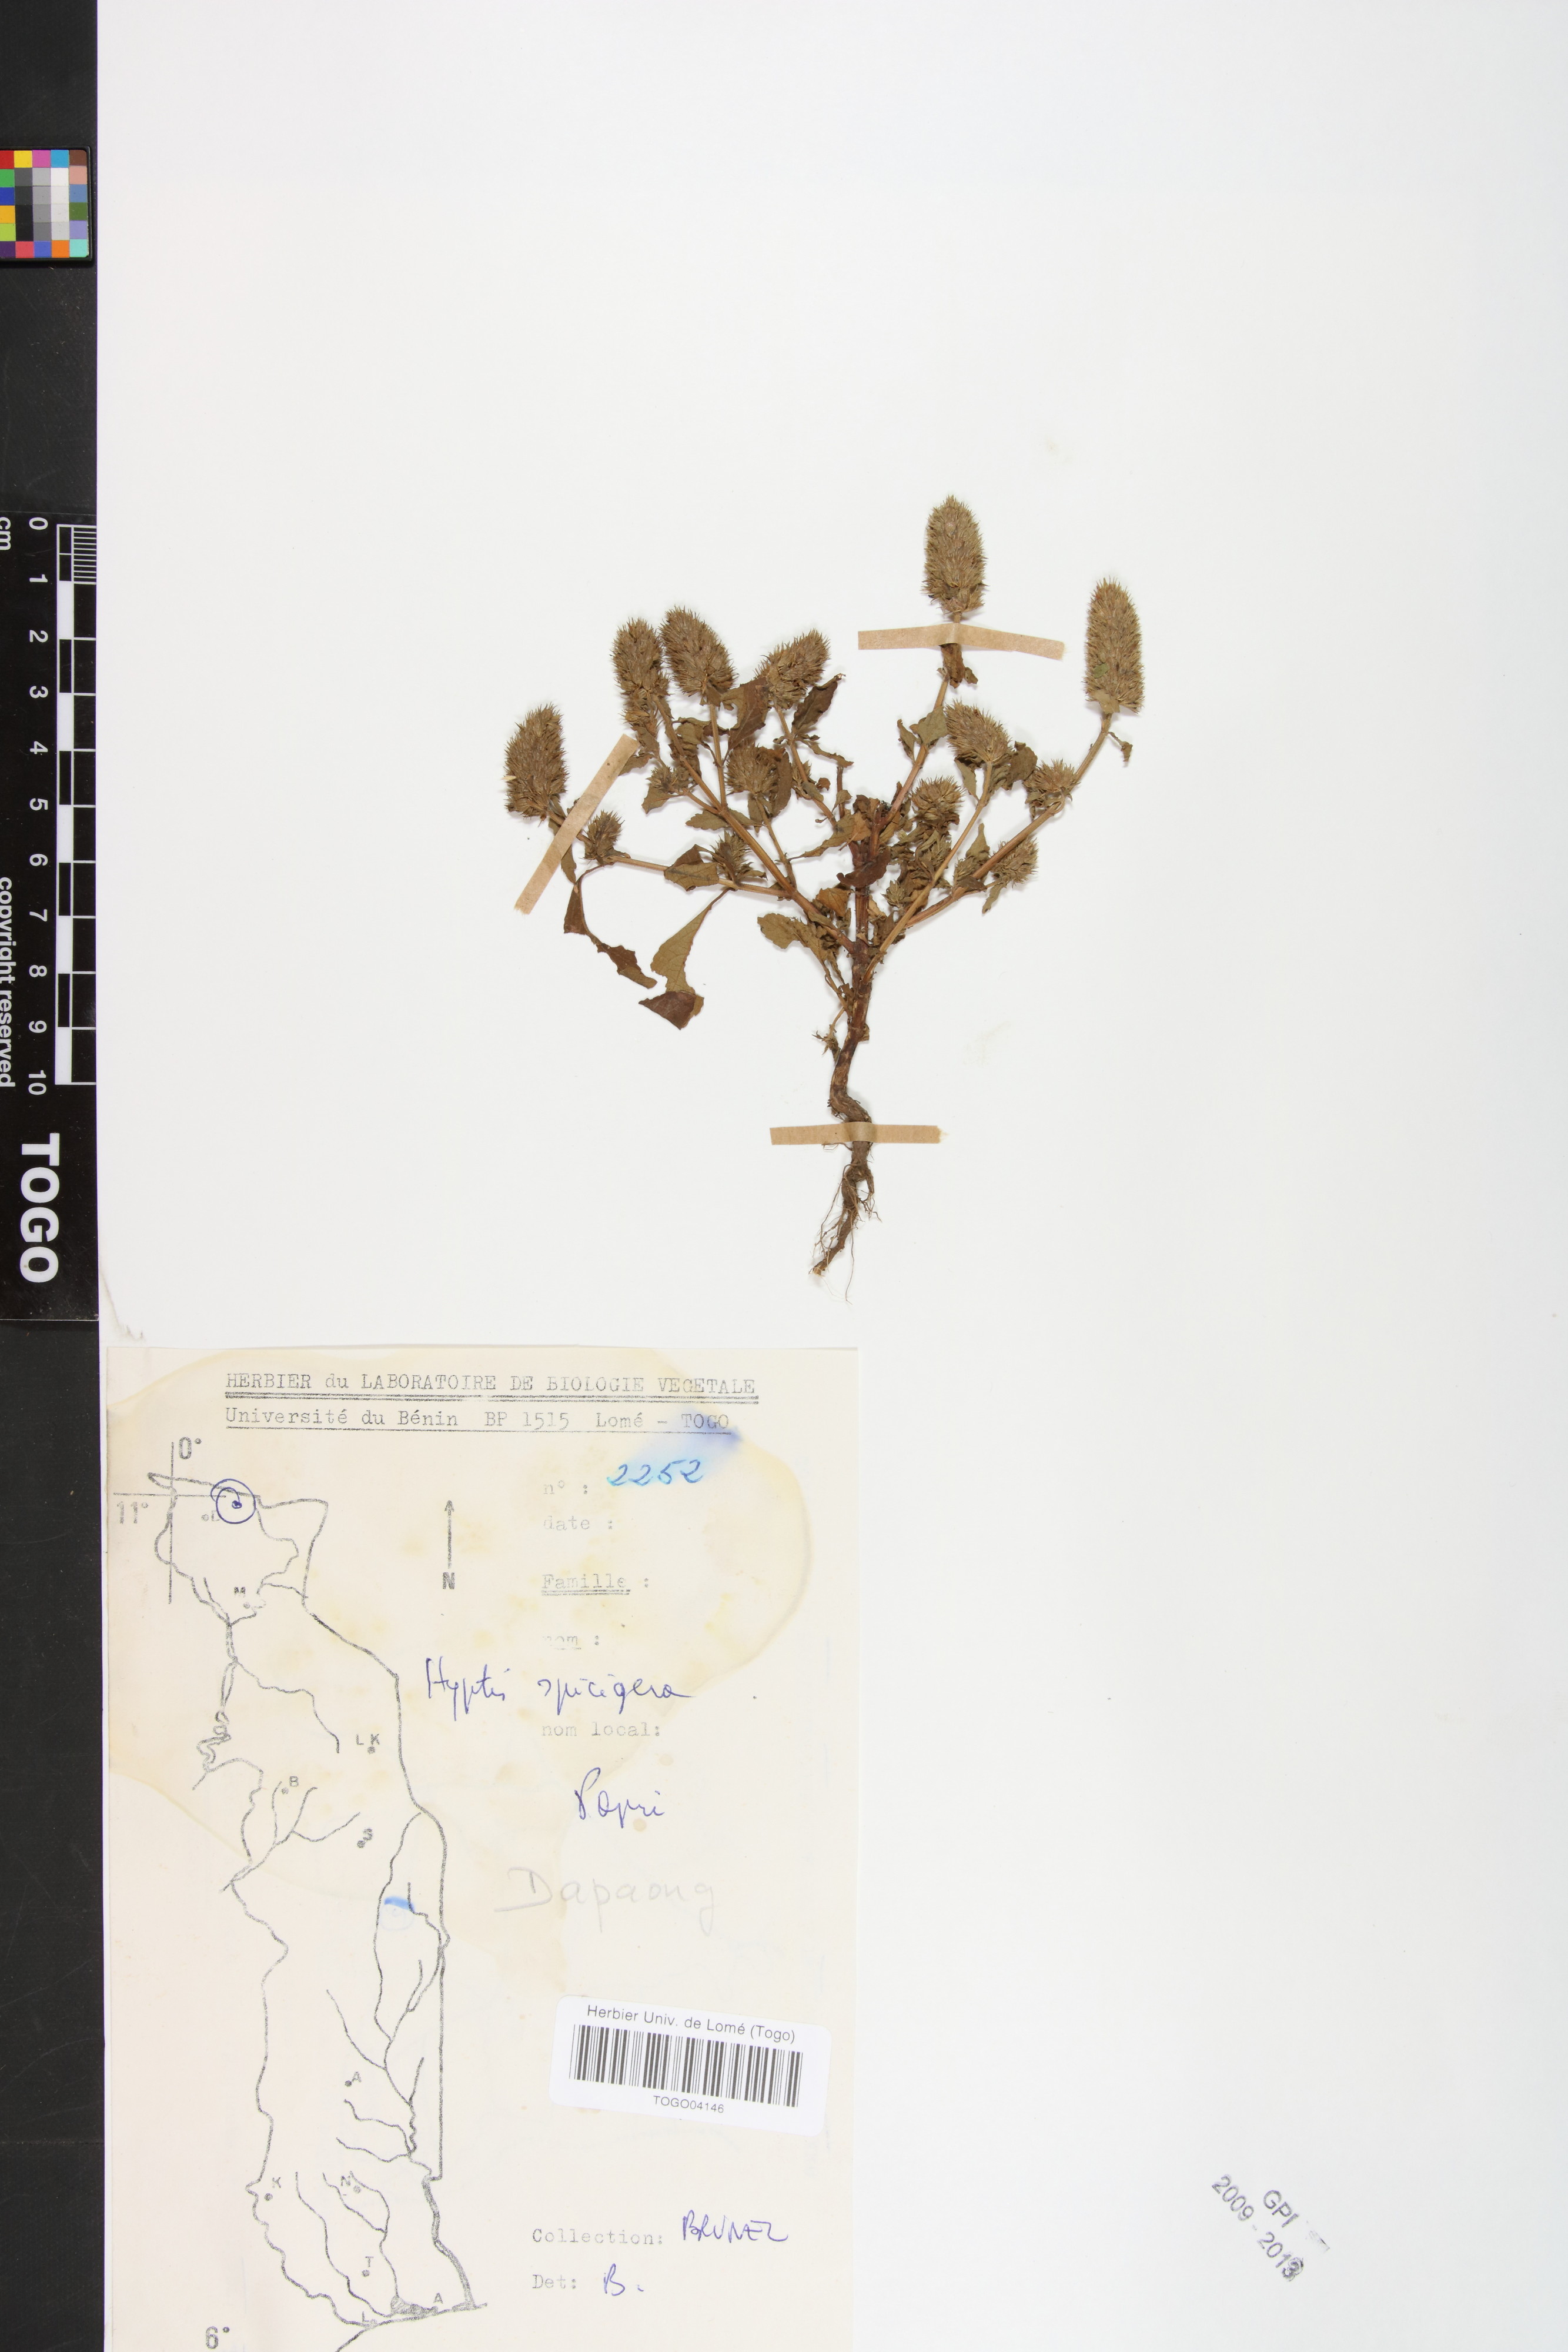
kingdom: Plantae
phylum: Tracheophyta
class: Magnoliopsida
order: Lamiales
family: Lamiaceae
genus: Cantinoa
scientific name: Cantinoa americana
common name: Black-sesame
